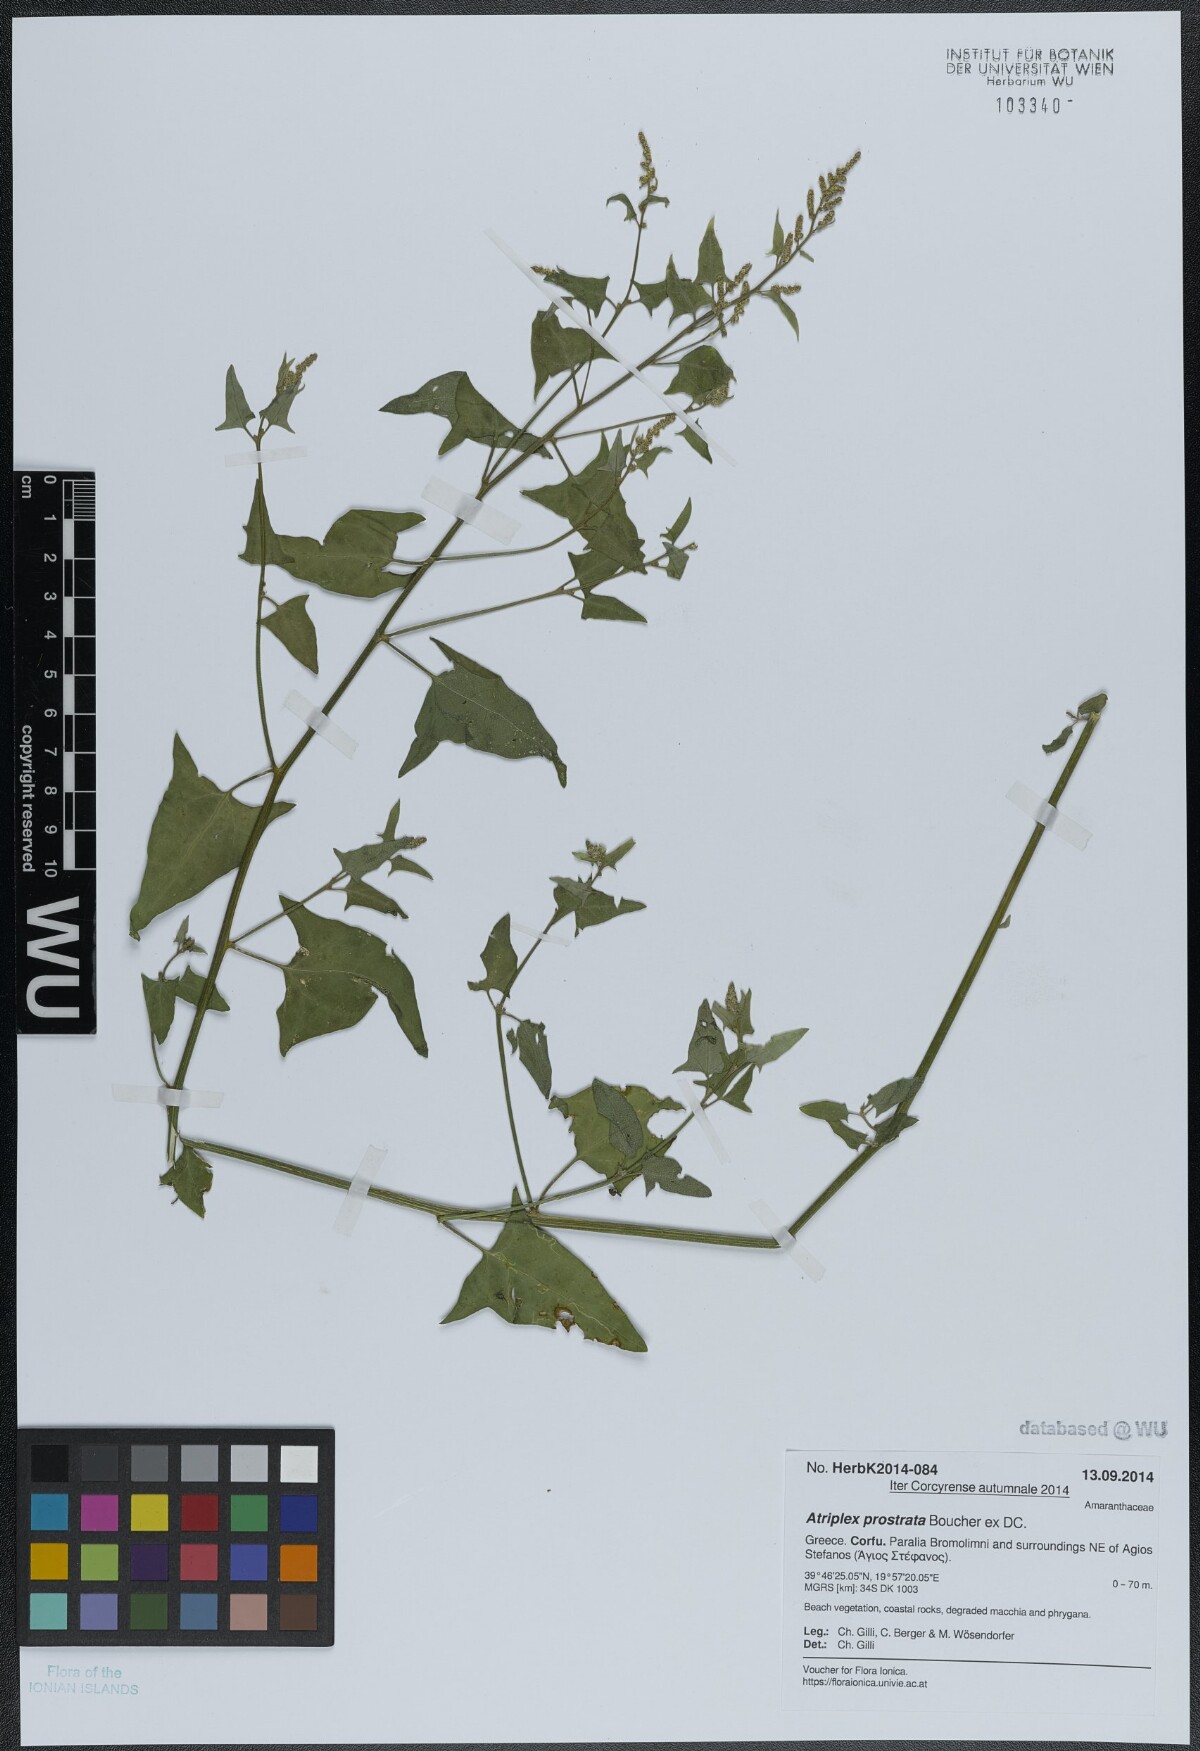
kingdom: Plantae
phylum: Tracheophyta
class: Magnoliopsida
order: Caryophyllales
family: Amaranthaceae
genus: Atriplex
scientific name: Atriplex prostrata
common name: Spear-leaved orache
